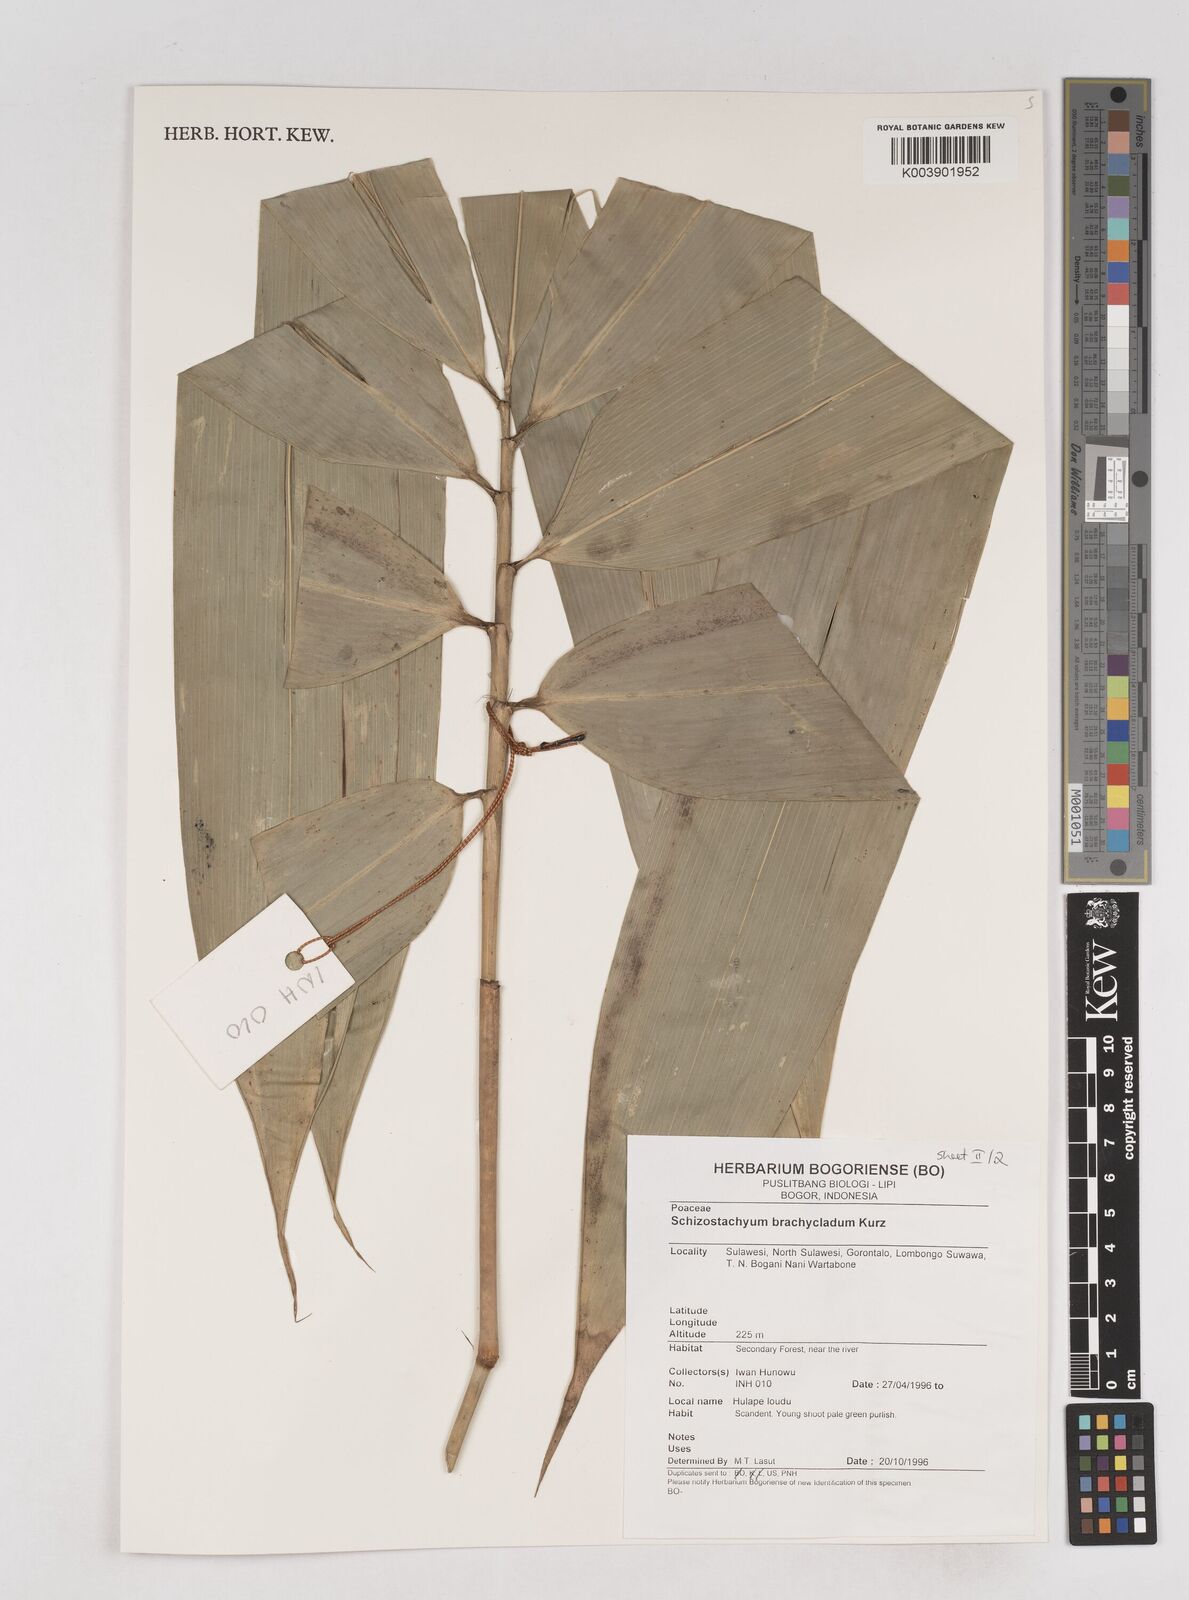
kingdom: Plantae
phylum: Tracheophyta
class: Liliopsida
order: Poales
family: Poaceae
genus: Schizostachyum
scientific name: Schizostachyum brachycladum
